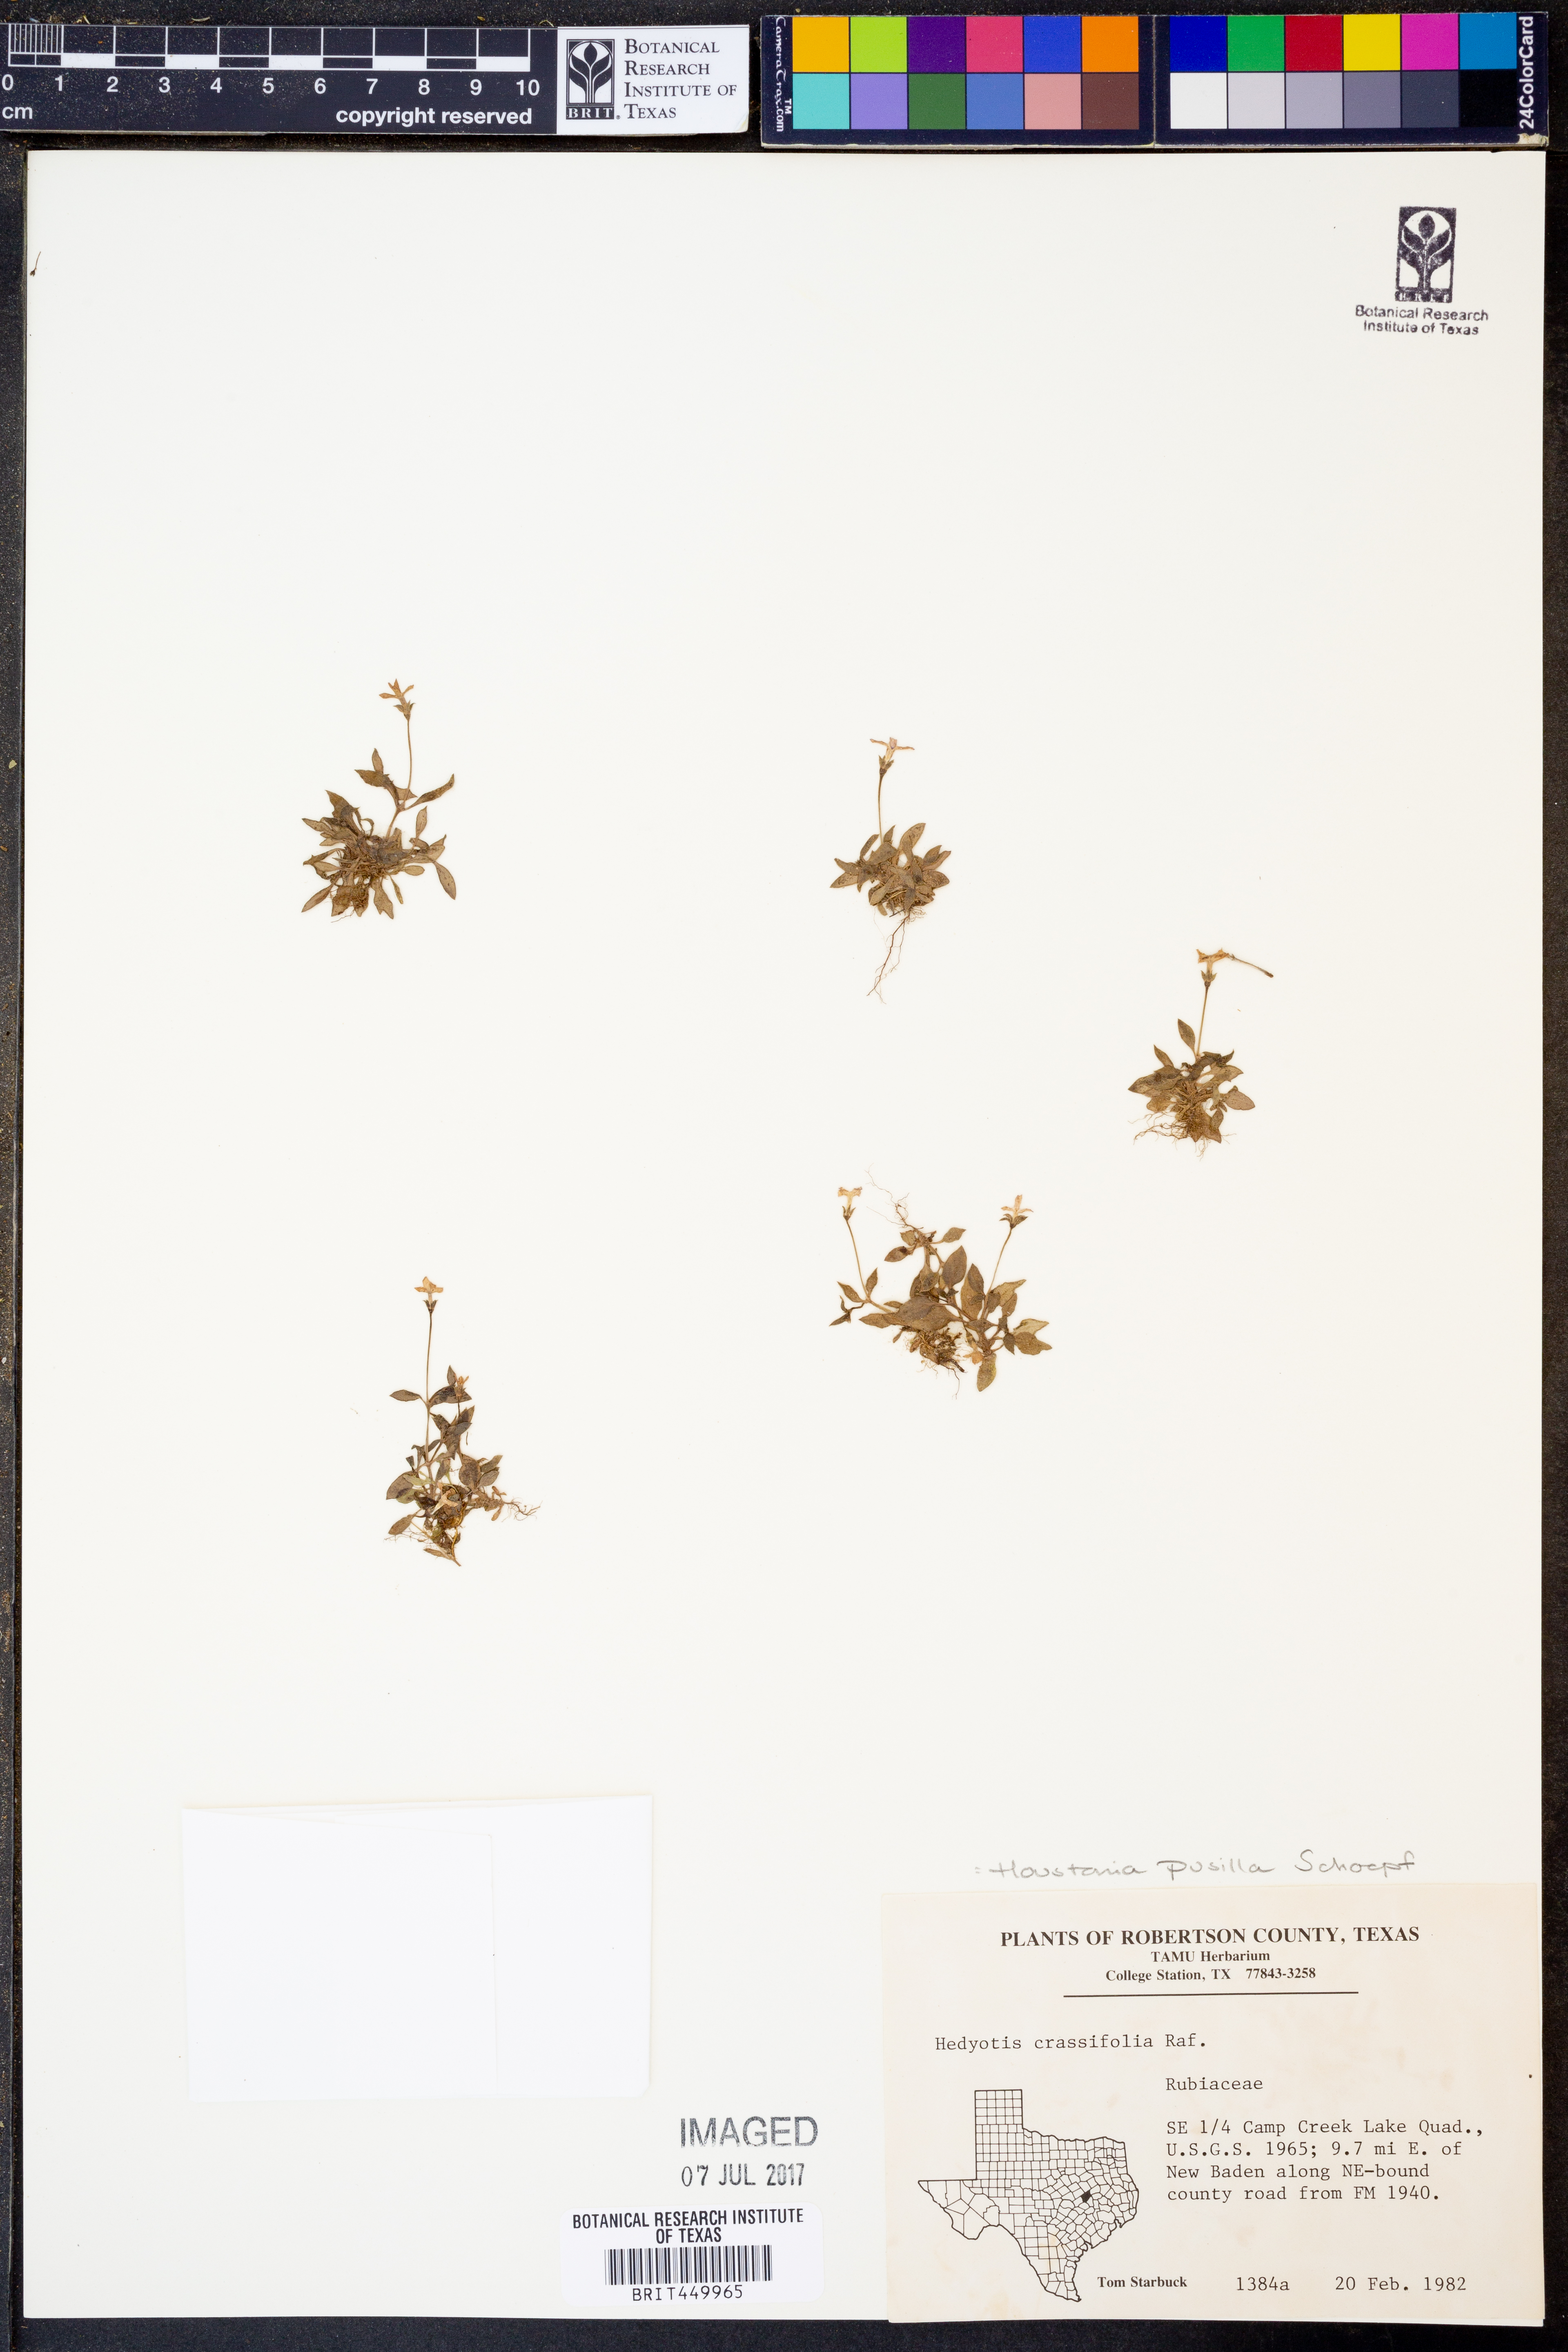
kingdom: Plantae
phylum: Tracheophyta
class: Magnoliopsida
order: Gentianales
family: Rubiaceae
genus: Houstonia
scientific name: Houstonia pusilla
